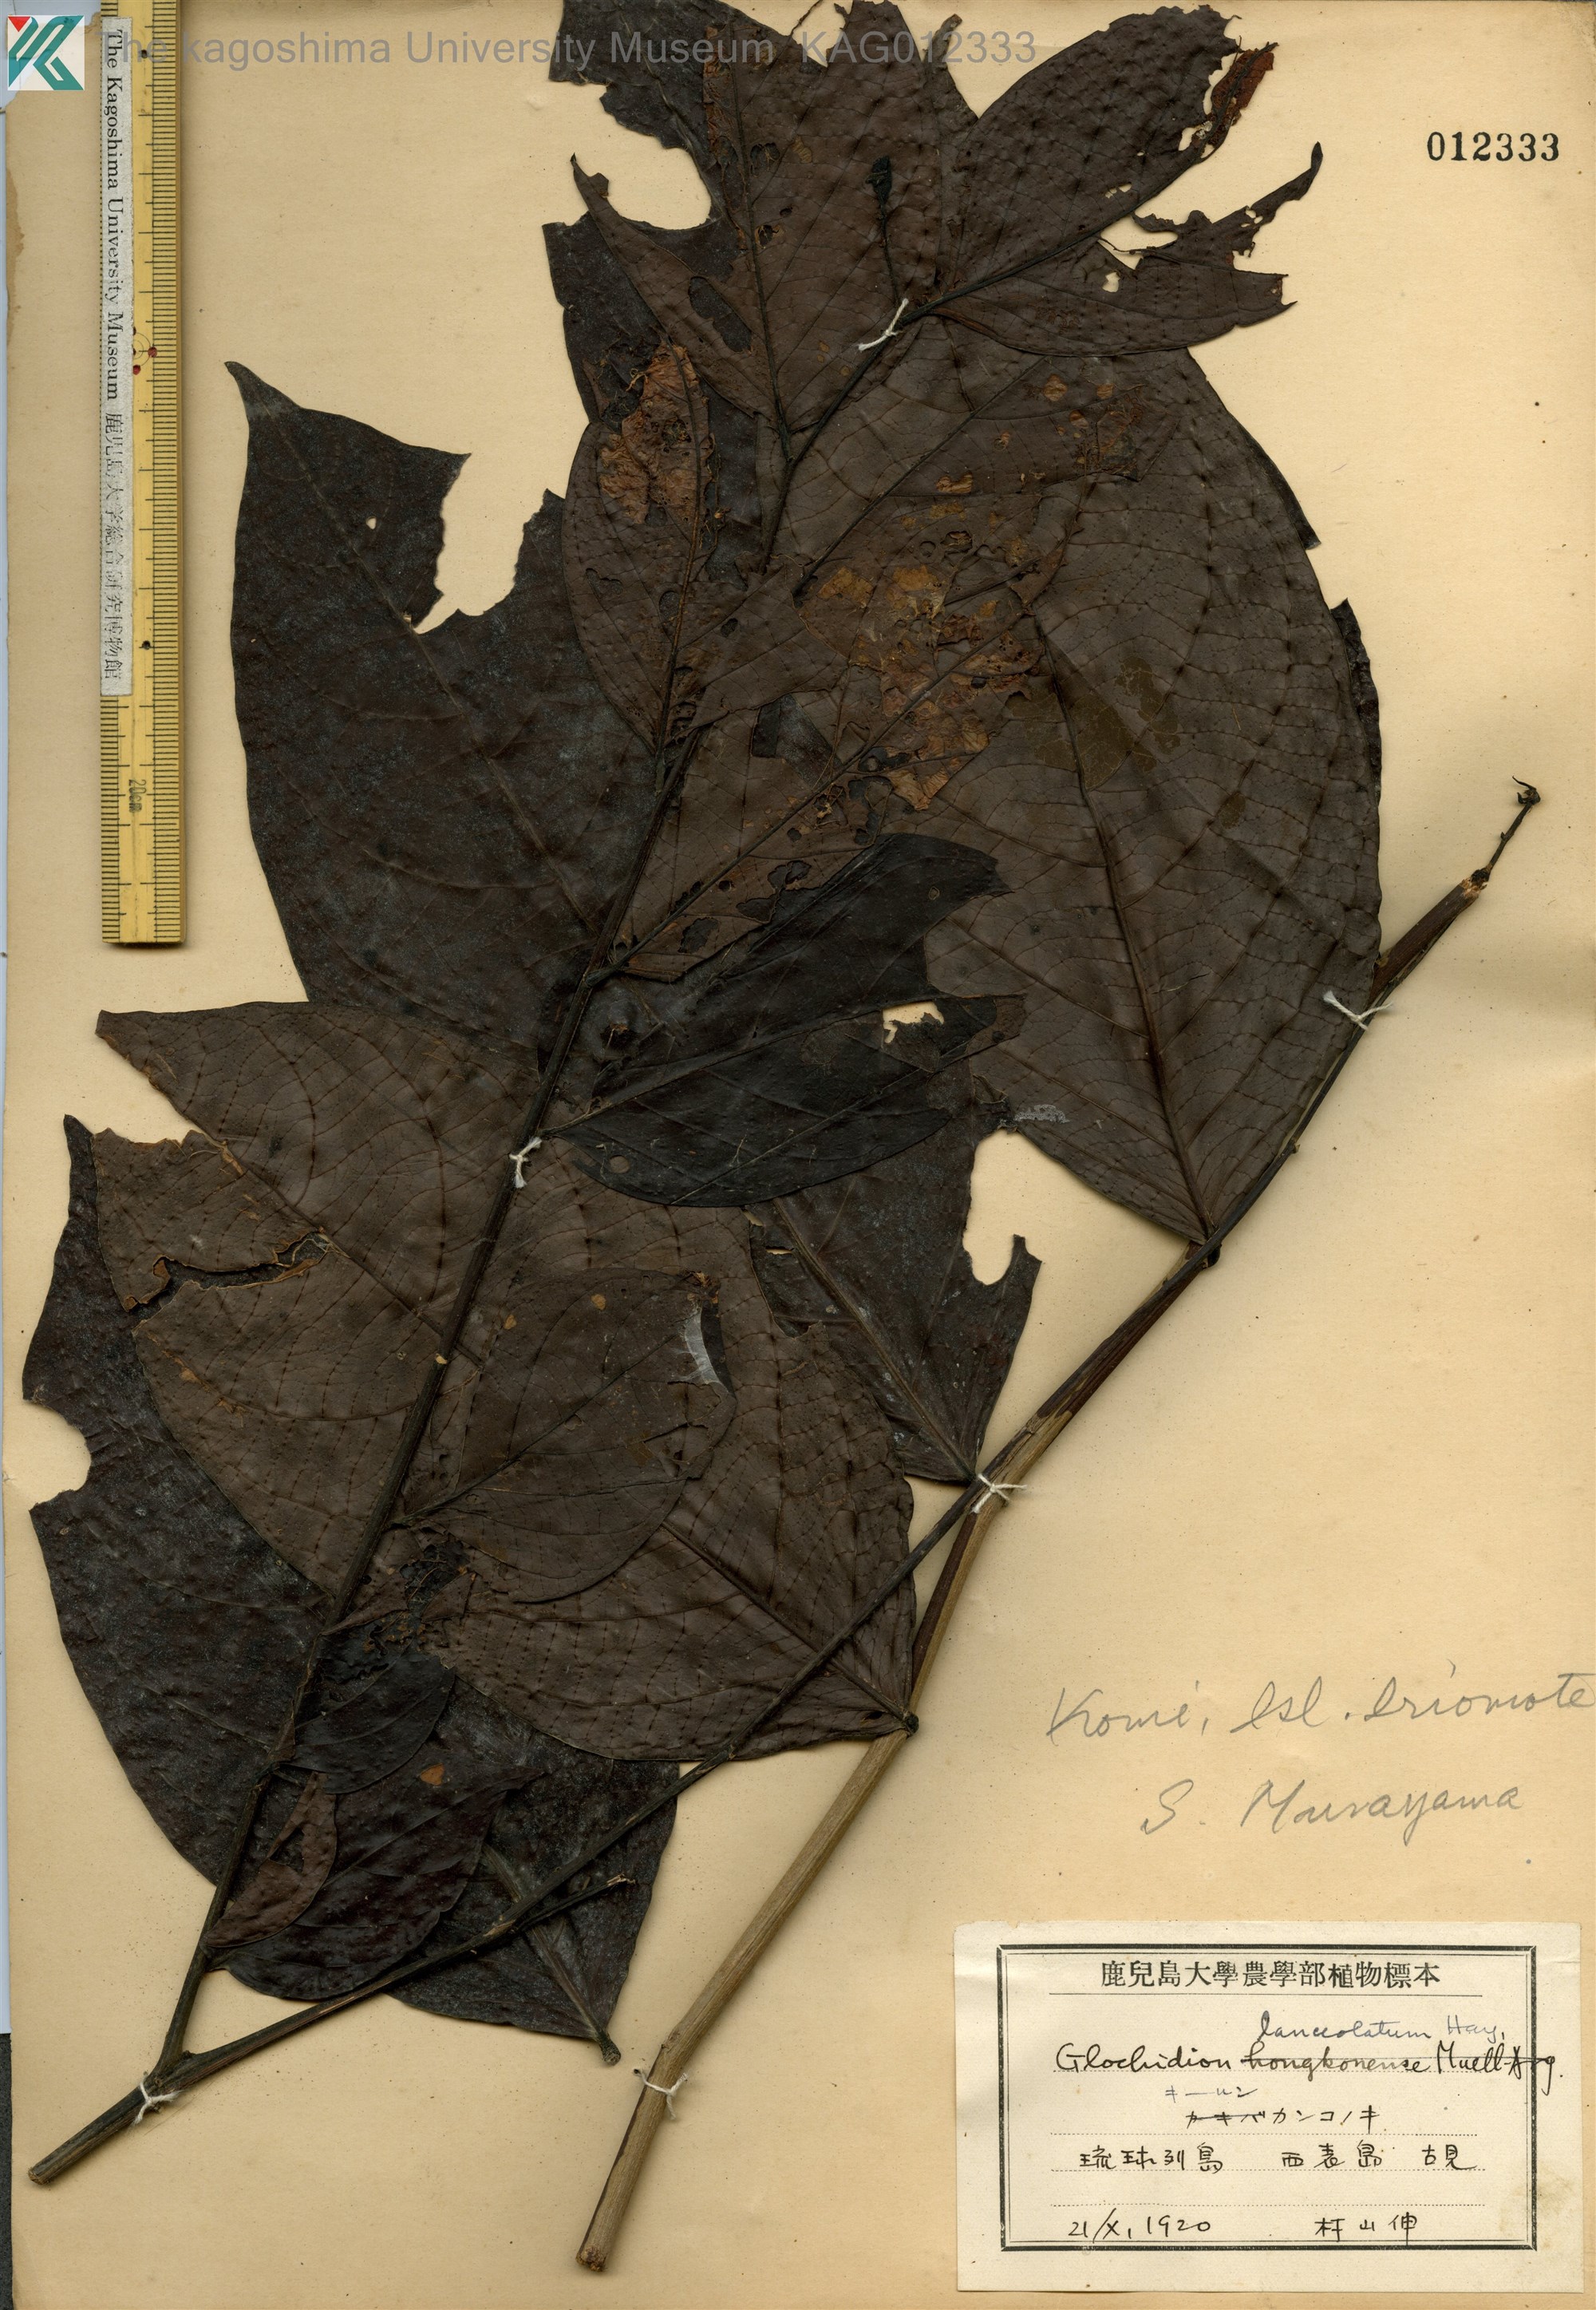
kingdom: Plantae
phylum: Tracheophyta
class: Magnoliopsida
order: Malpighiales
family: Phyllanthaceae
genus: Glochidion
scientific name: Glochidion lanceolatum
